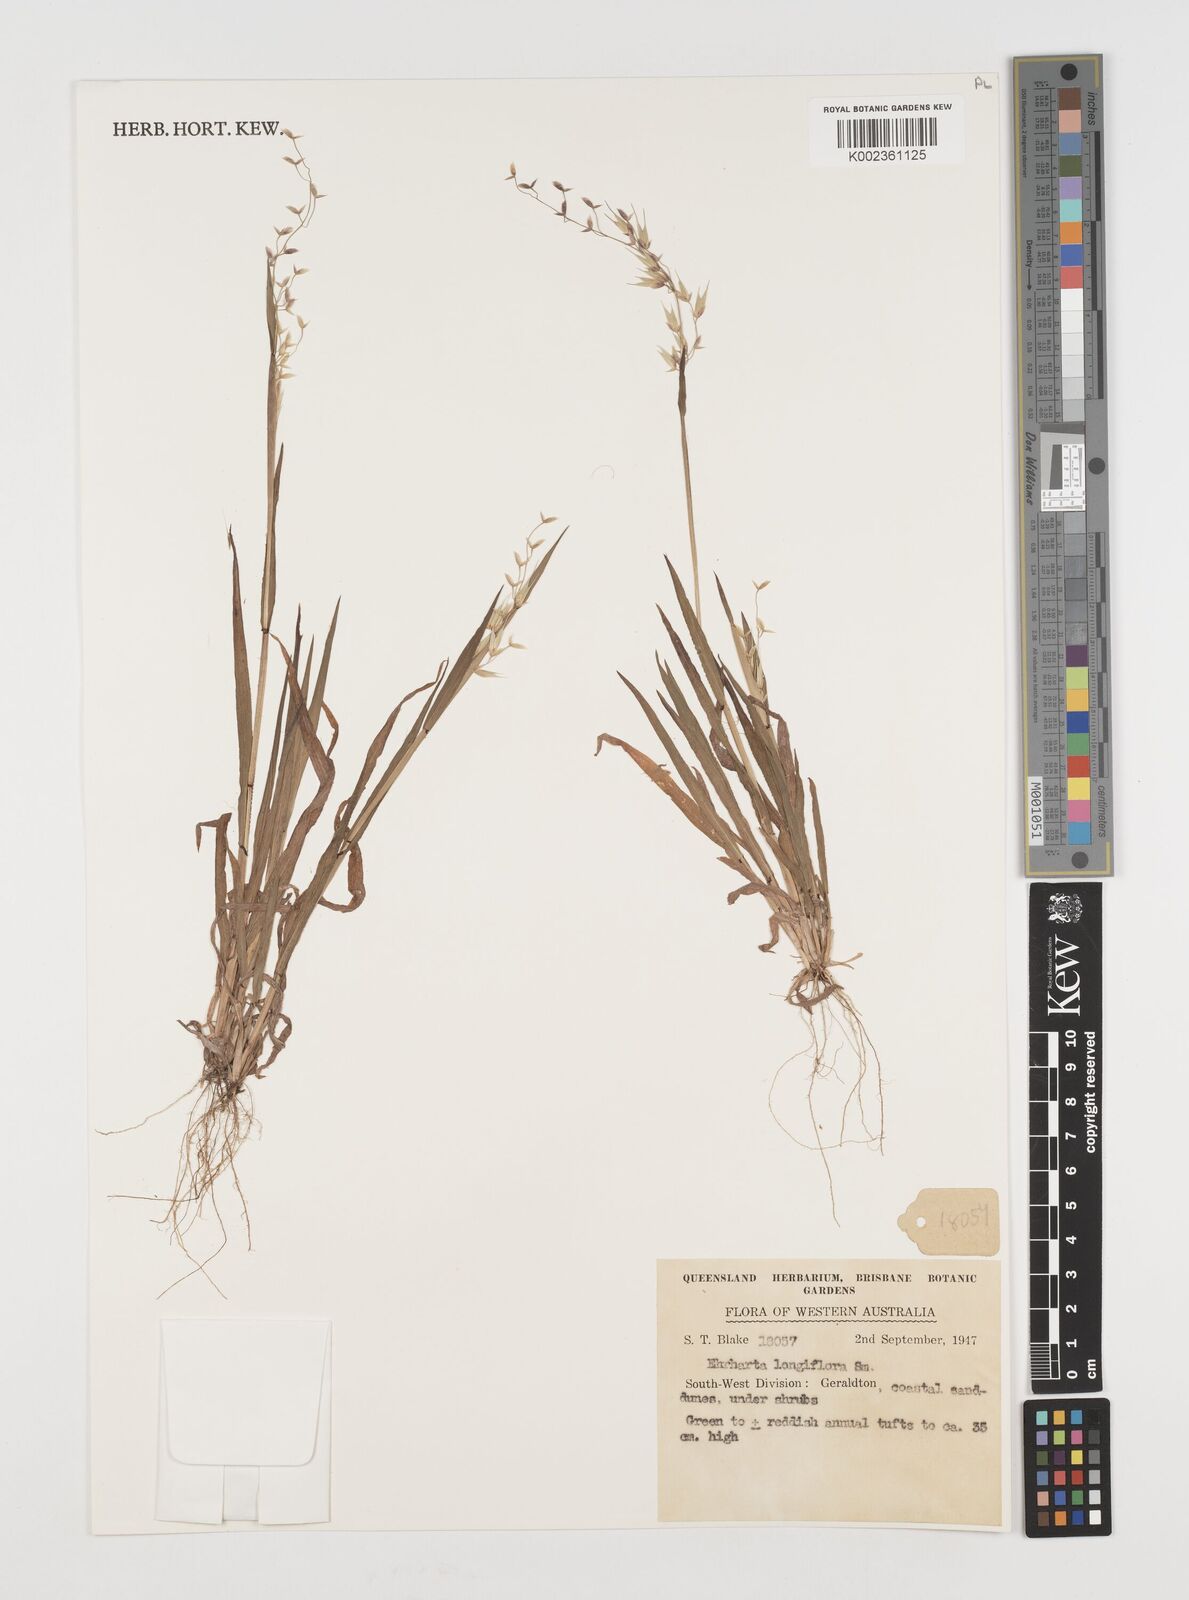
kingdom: Plantae
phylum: Tracheophyta
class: Liliopsida
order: Poales
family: Poaceae
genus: Ehrharta
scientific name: Ehrharta longiflora
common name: Longflowered veldtgrass
